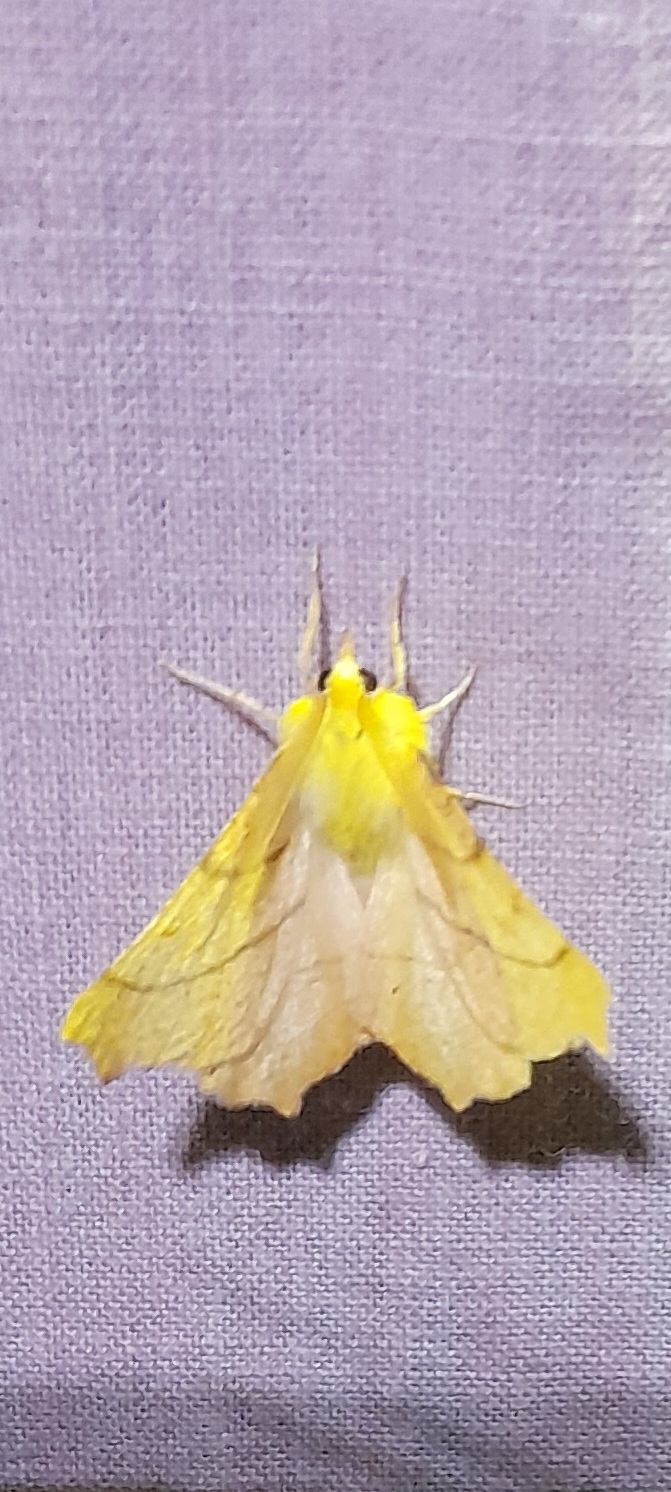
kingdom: Animalia
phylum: Arthropoda
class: Insecta
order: Lepidoptera
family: Geometridae
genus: Ennomos
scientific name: Ennomos alniaria
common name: Elle-tandmåler
